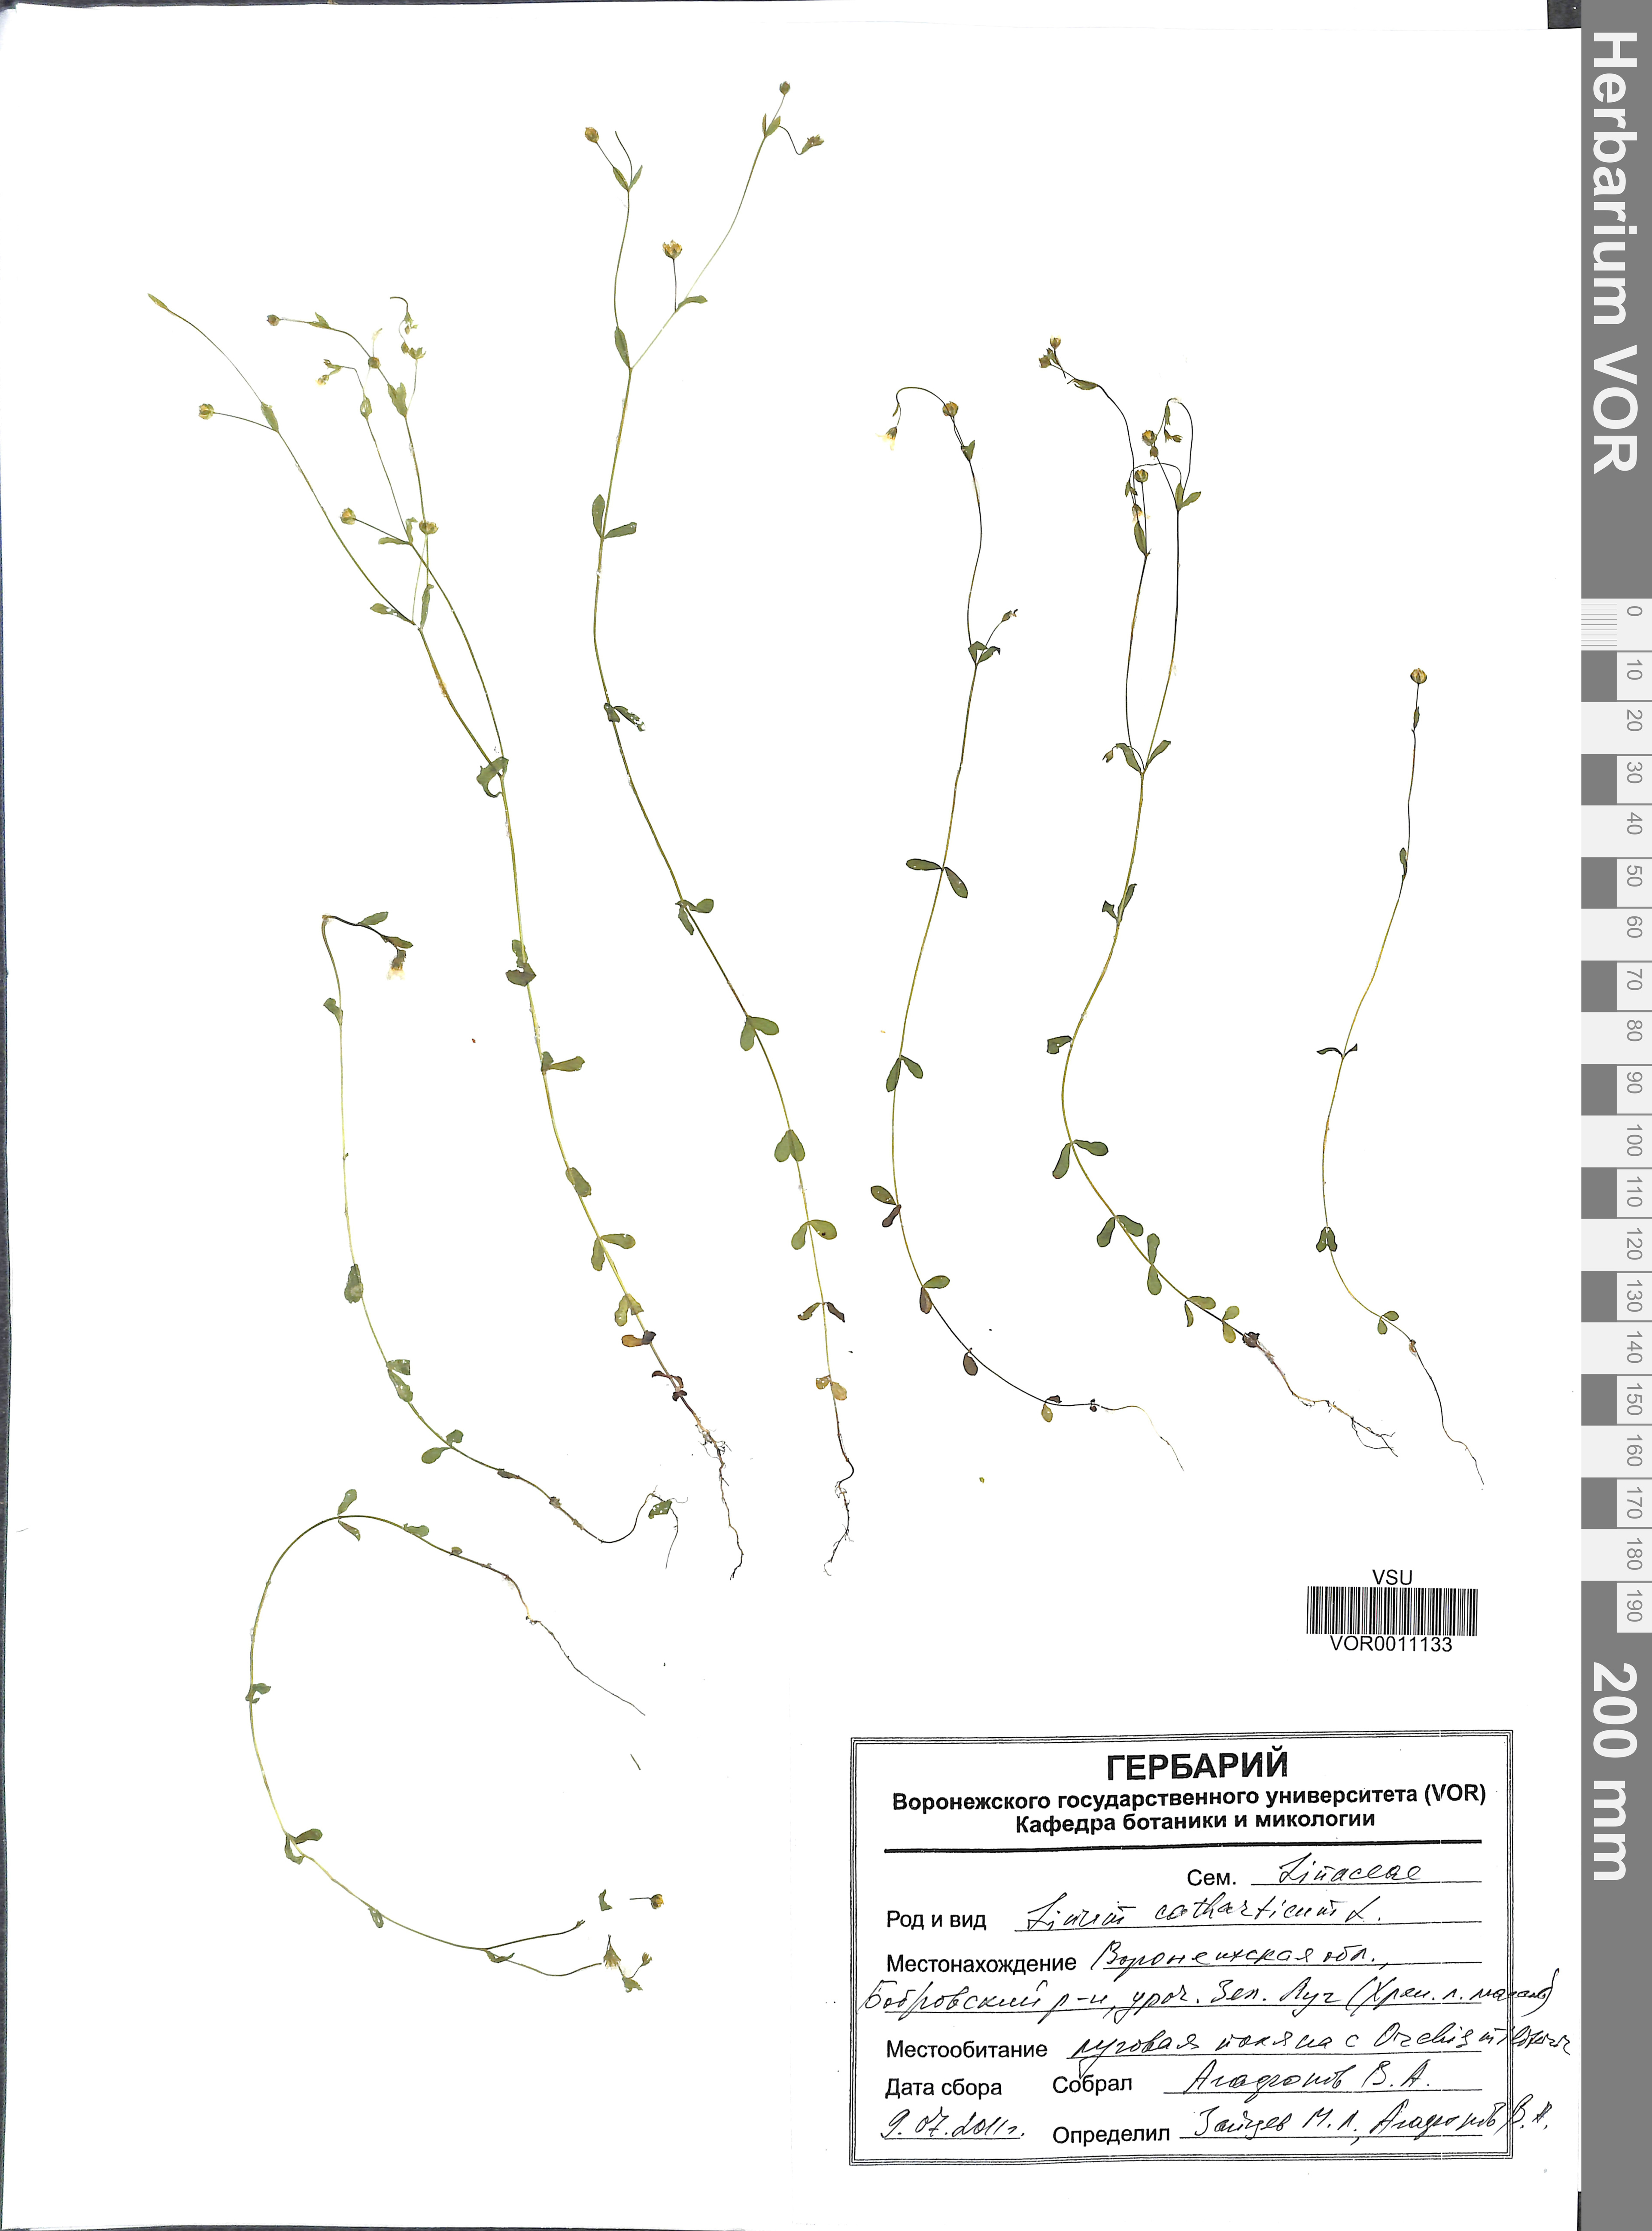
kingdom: Plantae
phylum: Tracheophyta
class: Magnoliopsida
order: Malpighiales
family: Linaceae
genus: Linum
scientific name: Linum catharticum
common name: Fairy flax
